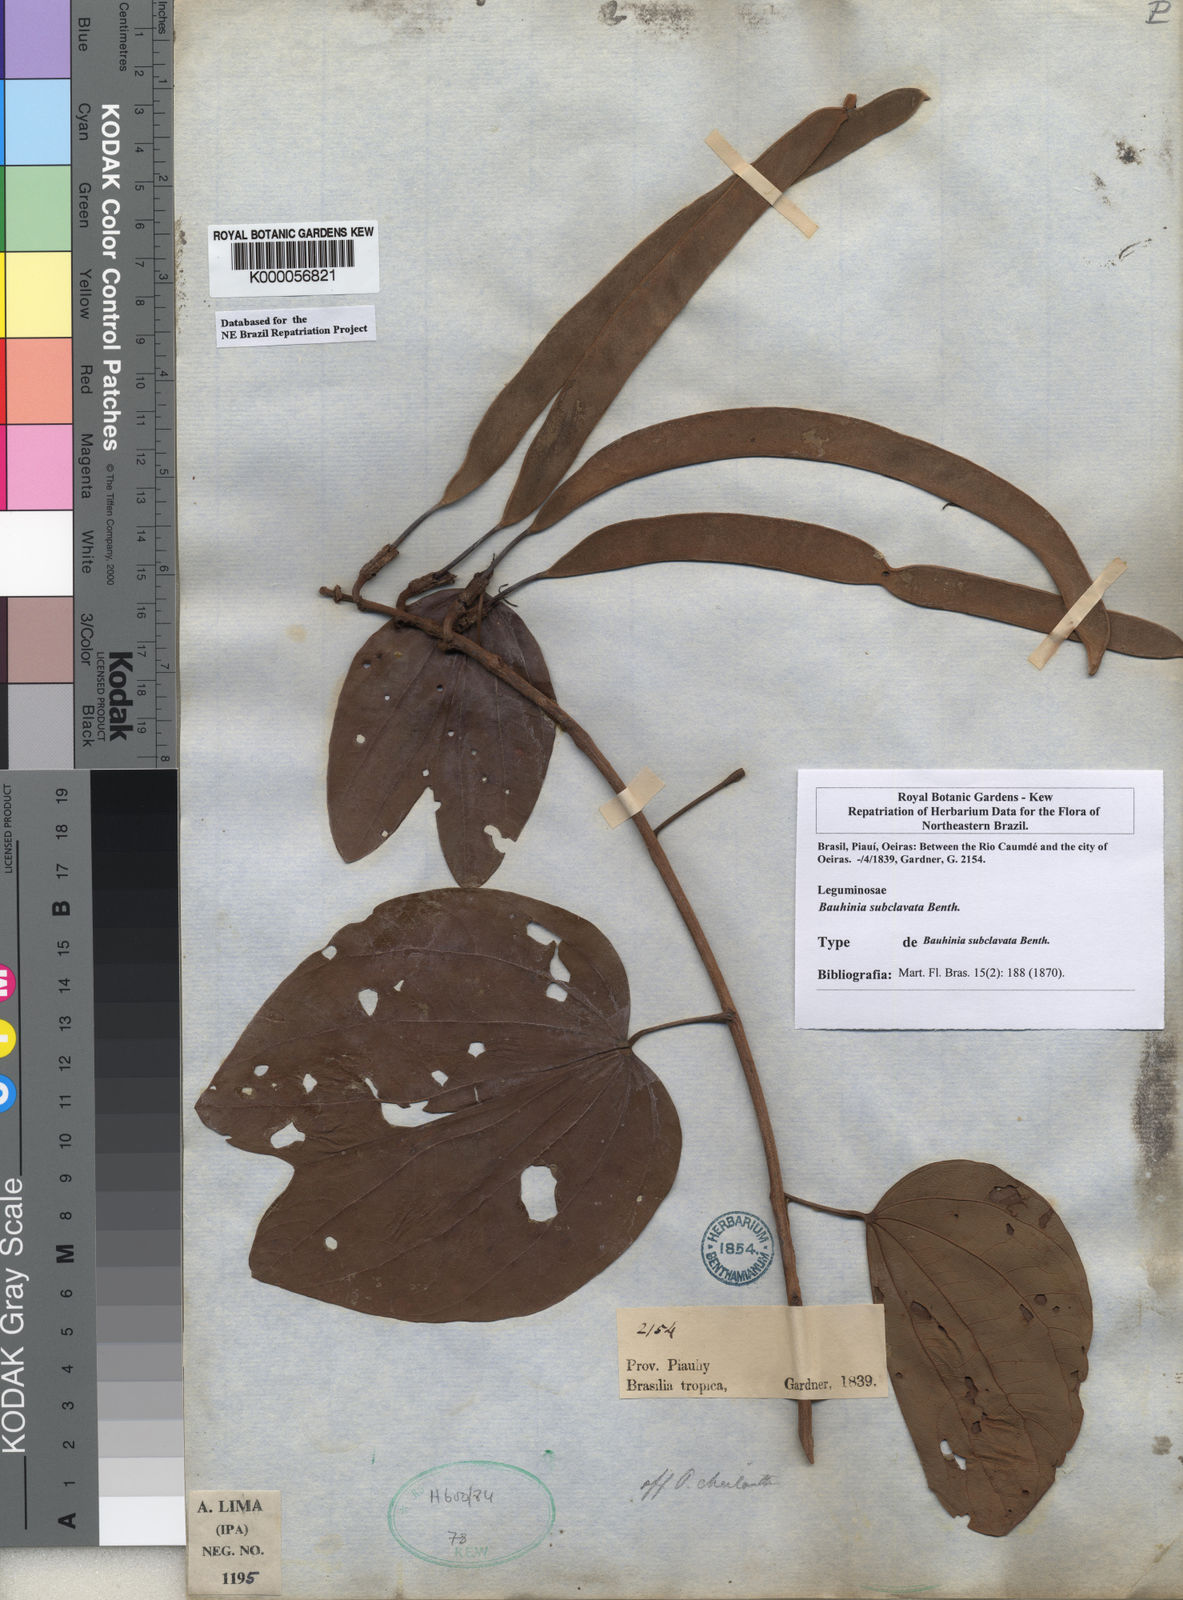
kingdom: Plantae
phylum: Tracheophyta
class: Magnoliopsida
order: Fabales
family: Fabaceae
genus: Bauhinia
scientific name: Bauhinia subclavata
